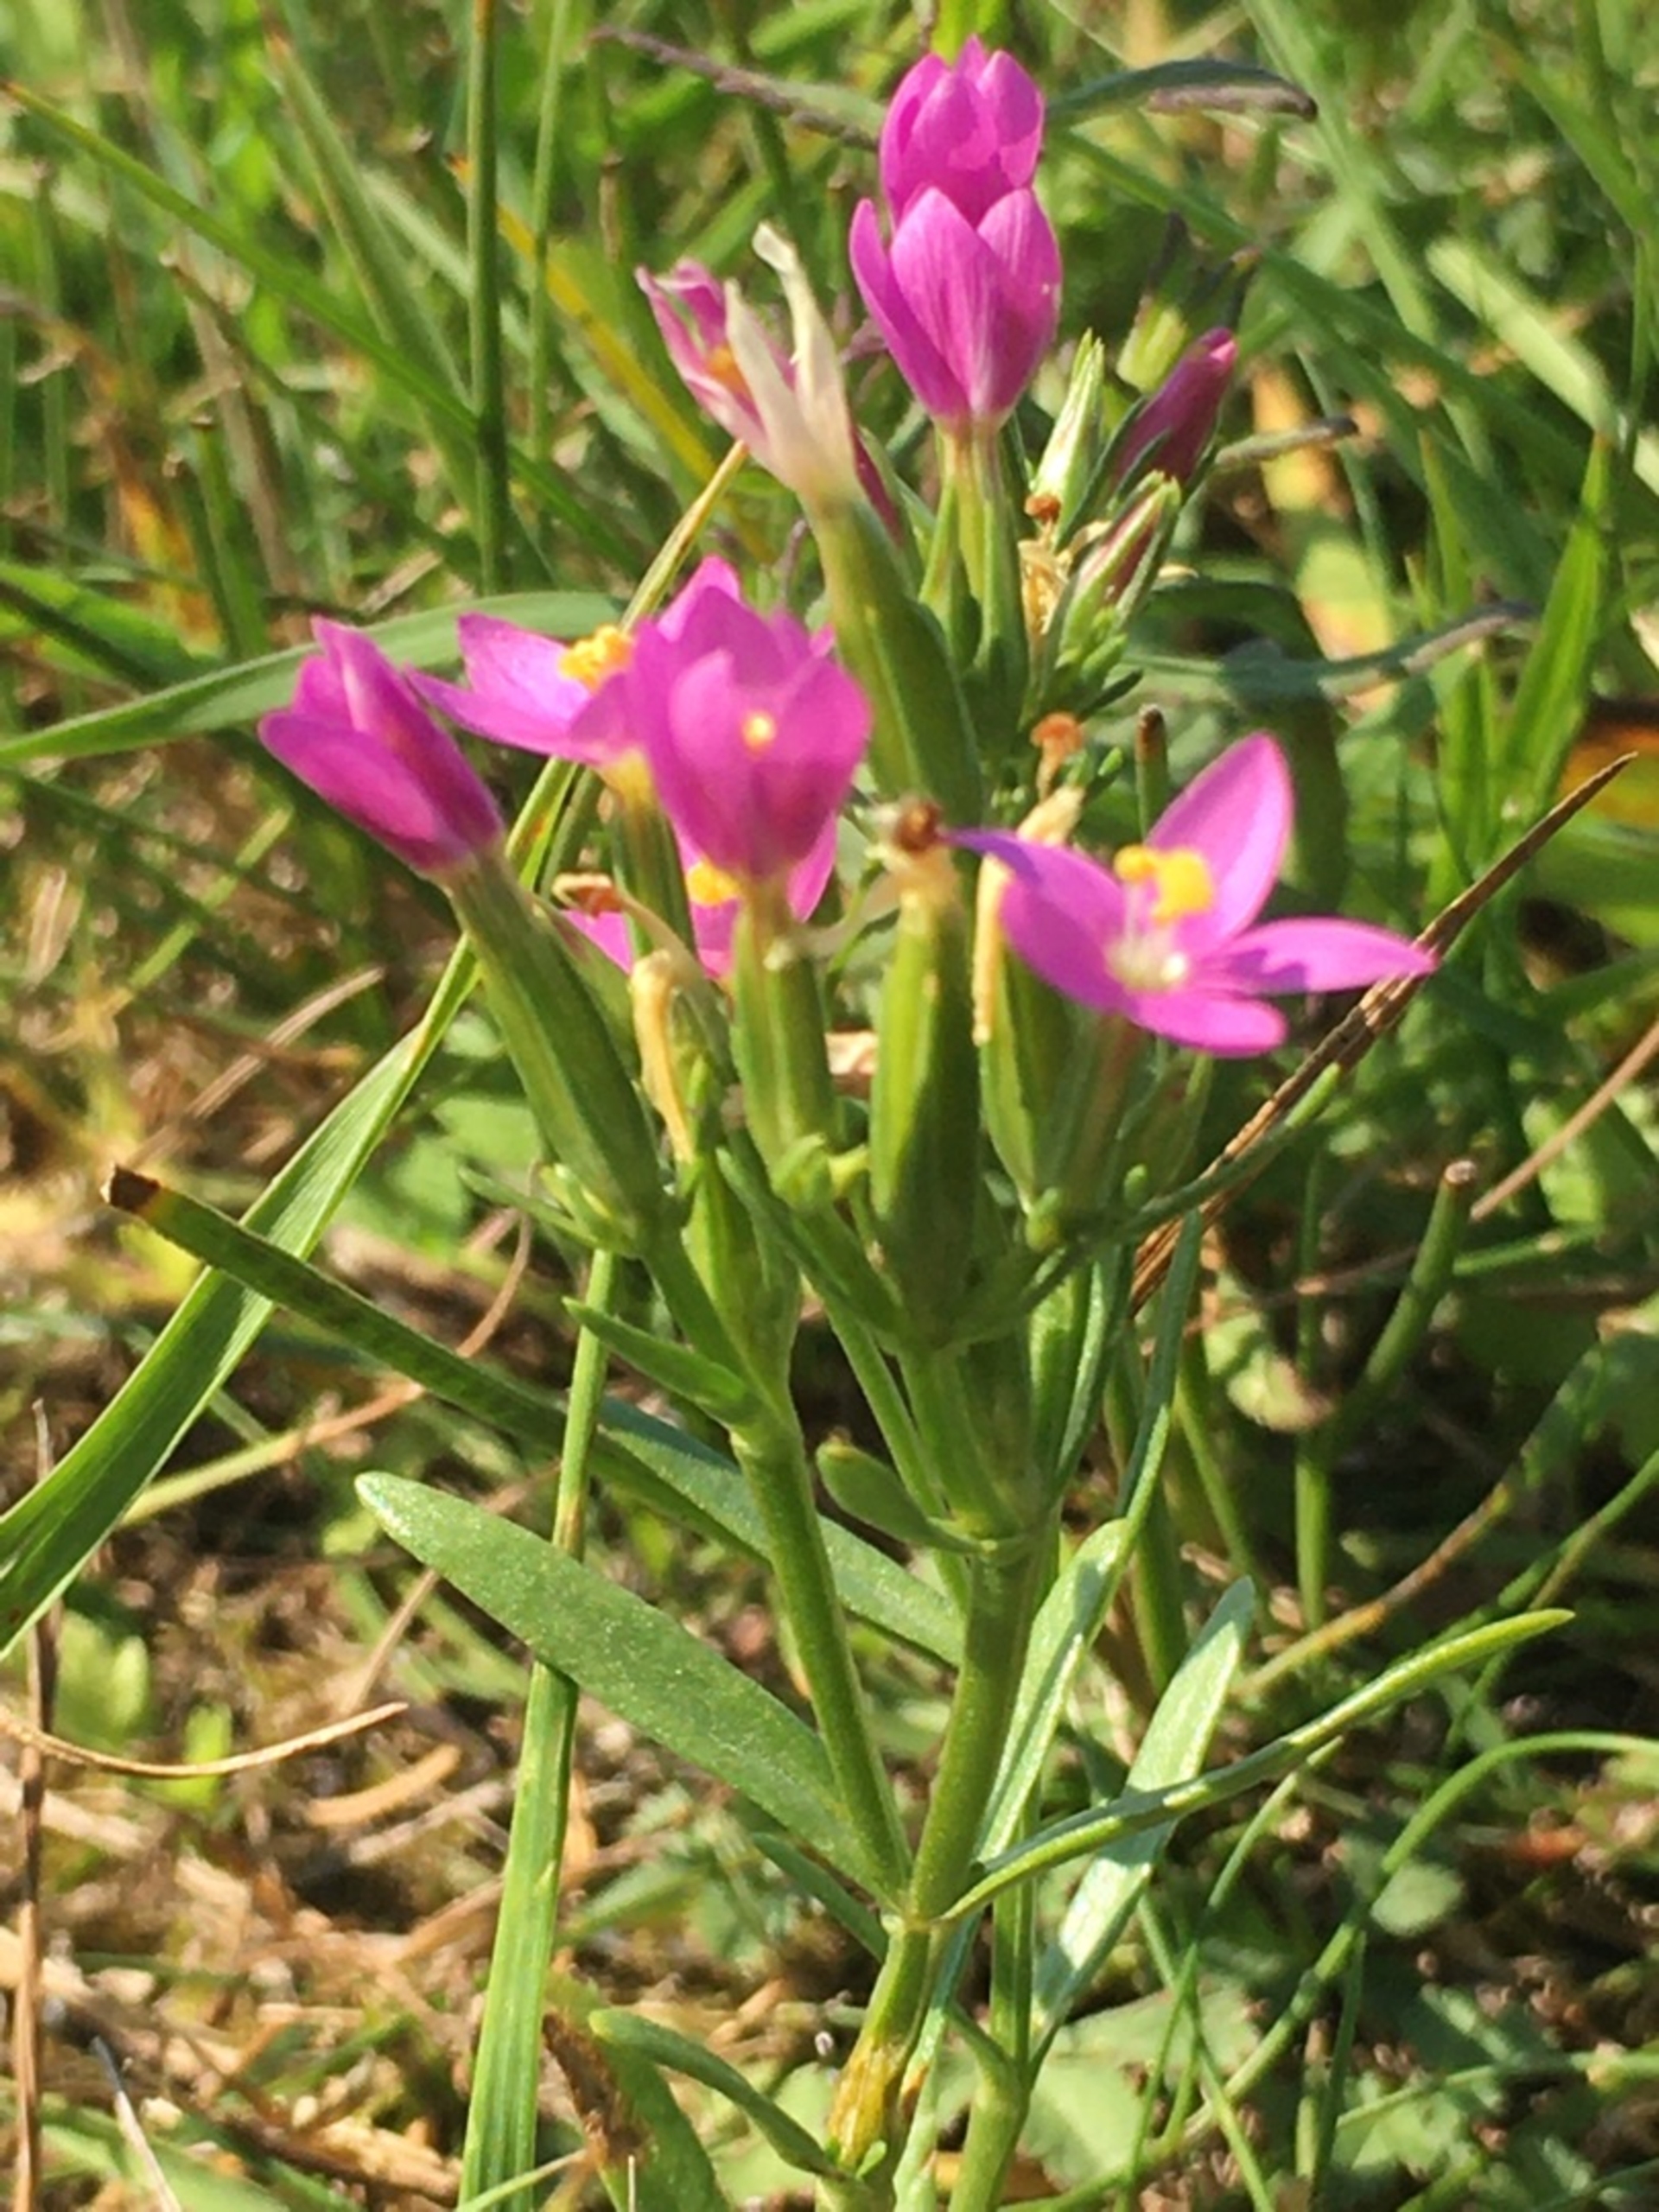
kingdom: Plantae
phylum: Tracheophyta
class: Magnoliopsida
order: Gentianales
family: Gentianaceae
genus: Centaurium
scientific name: Centaurium littorale
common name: Strand-tusindgylden
